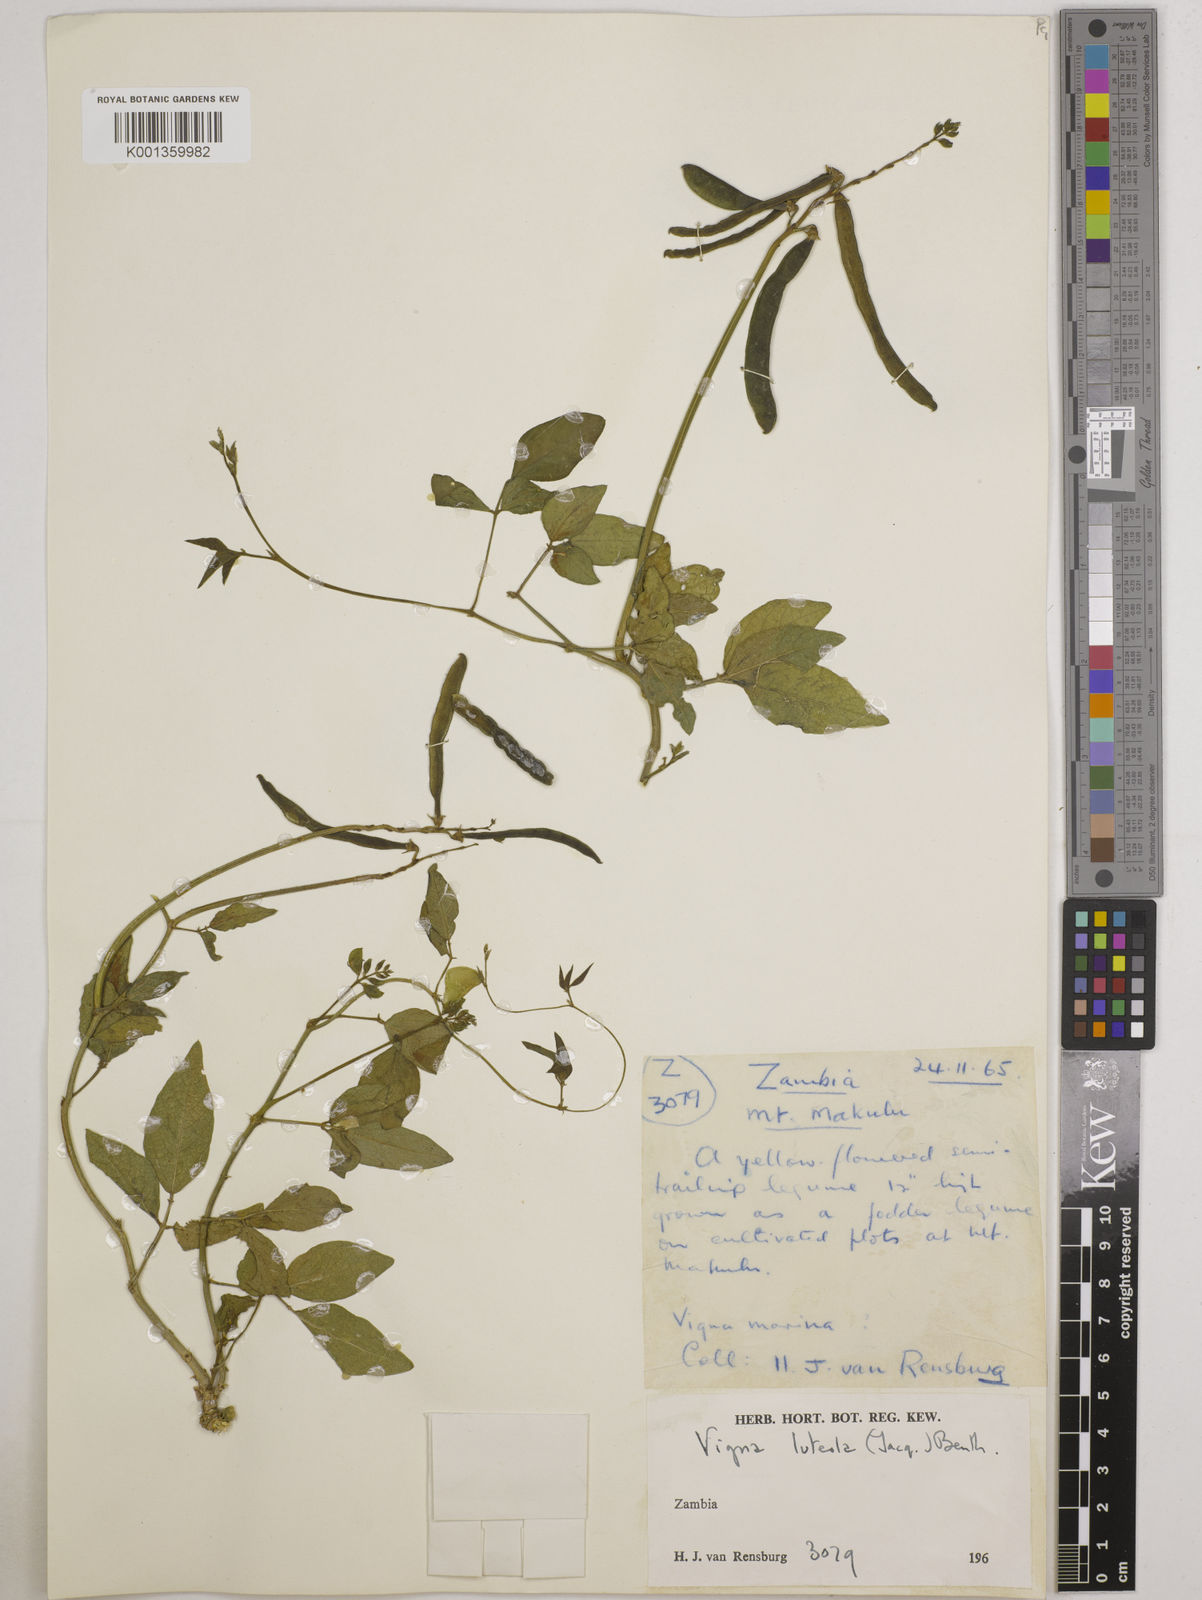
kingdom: Plantae
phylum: Tracheophyta
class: Magnoliopsida
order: Fabales
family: Fabaceae
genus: Vigna
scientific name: Vigna luteola
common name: Hairypod cowpea
